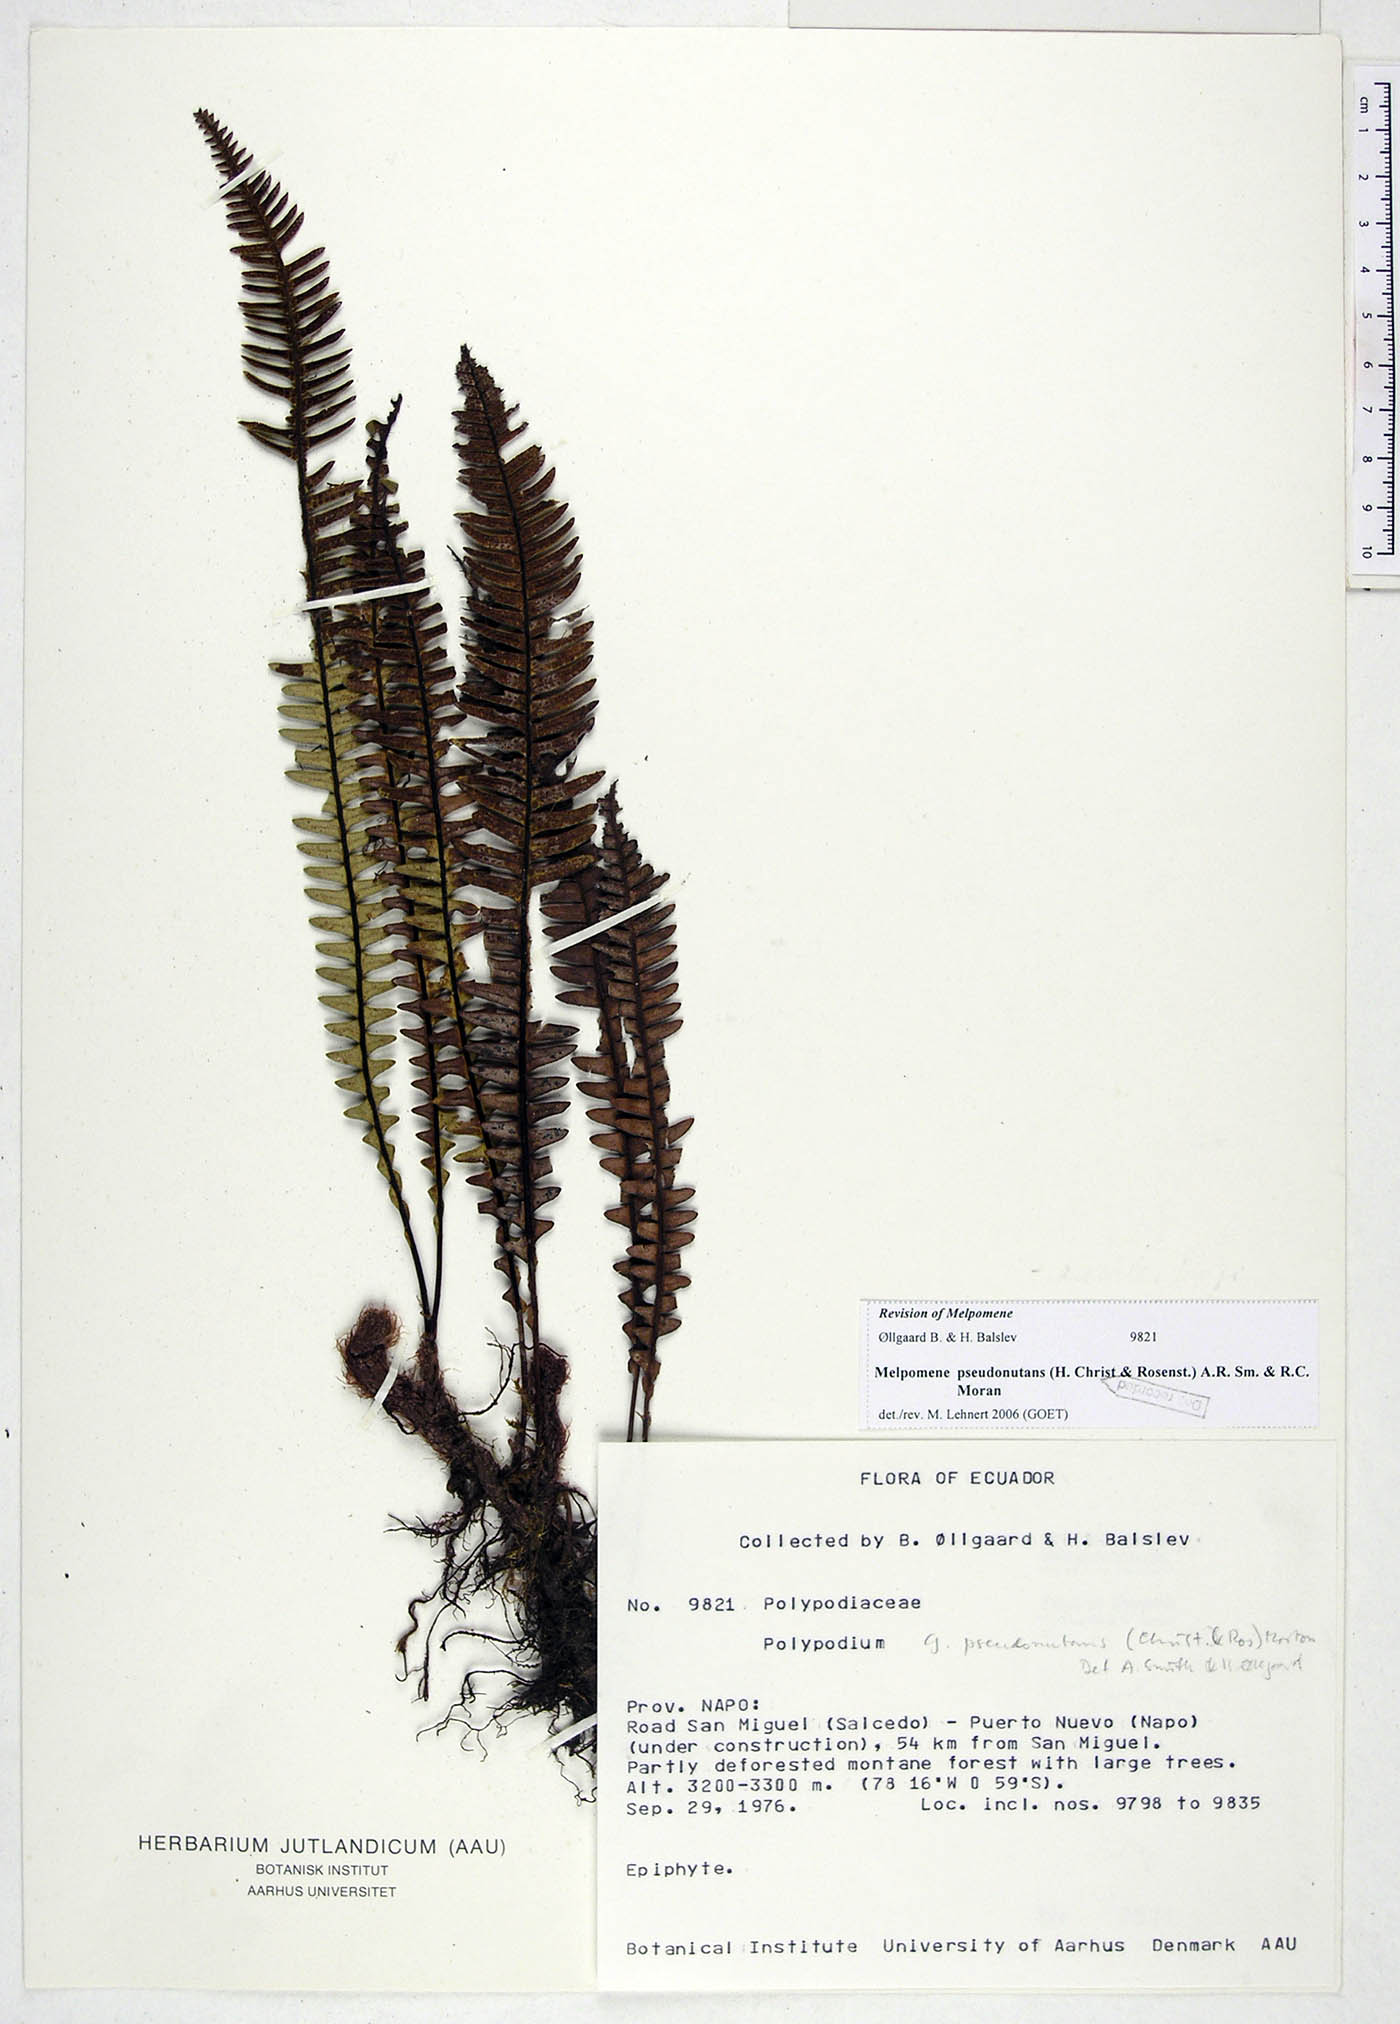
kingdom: Plantae
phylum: Tracheophyta
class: Polypodiopsida
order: Polypodiales
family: Polypodiaceae
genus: Melpomene
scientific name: Melpomene pseudonutans
